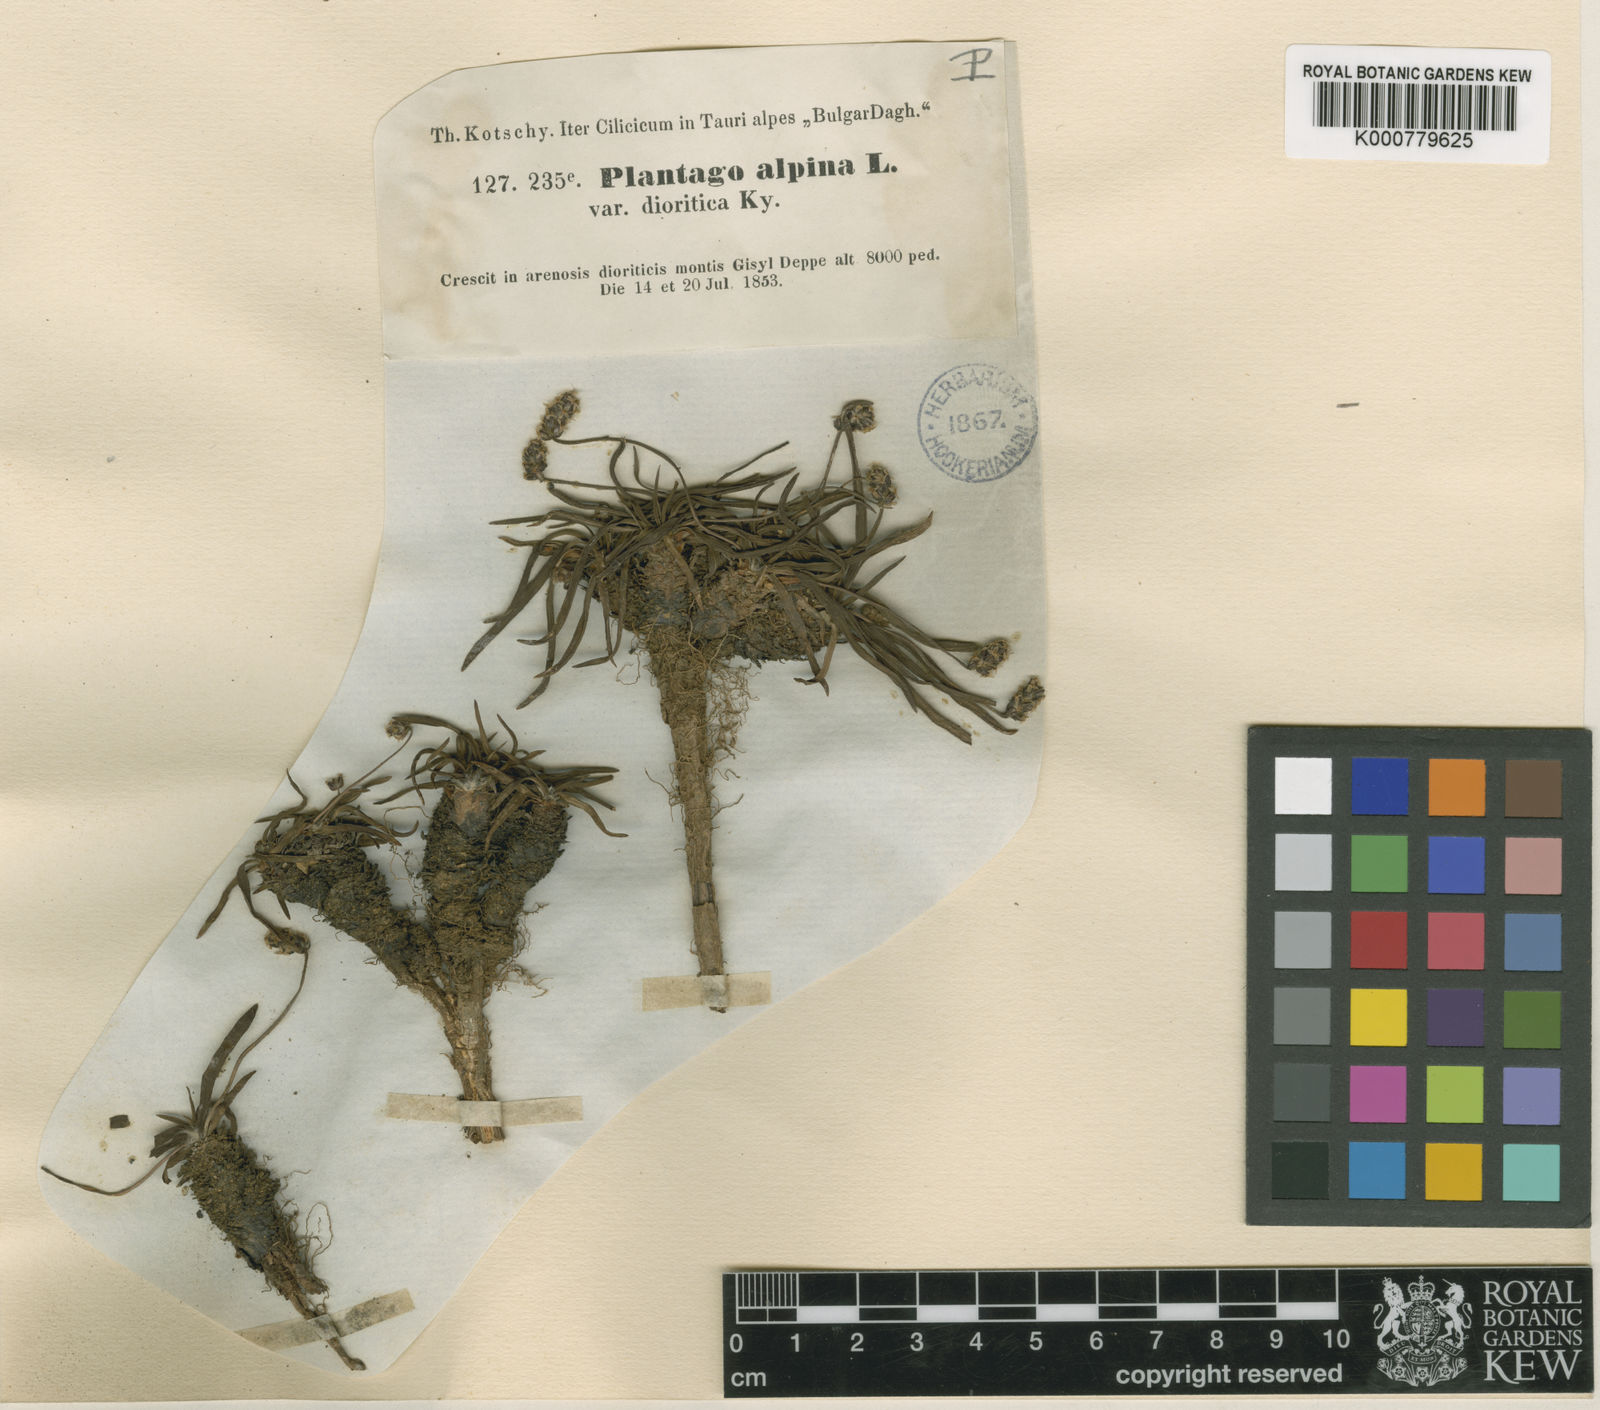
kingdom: Plantae
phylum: Tracheophyta
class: Magnoliopsida
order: Lamiales
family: Plantaginaceae
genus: Plantago
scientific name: Plantago subulata
